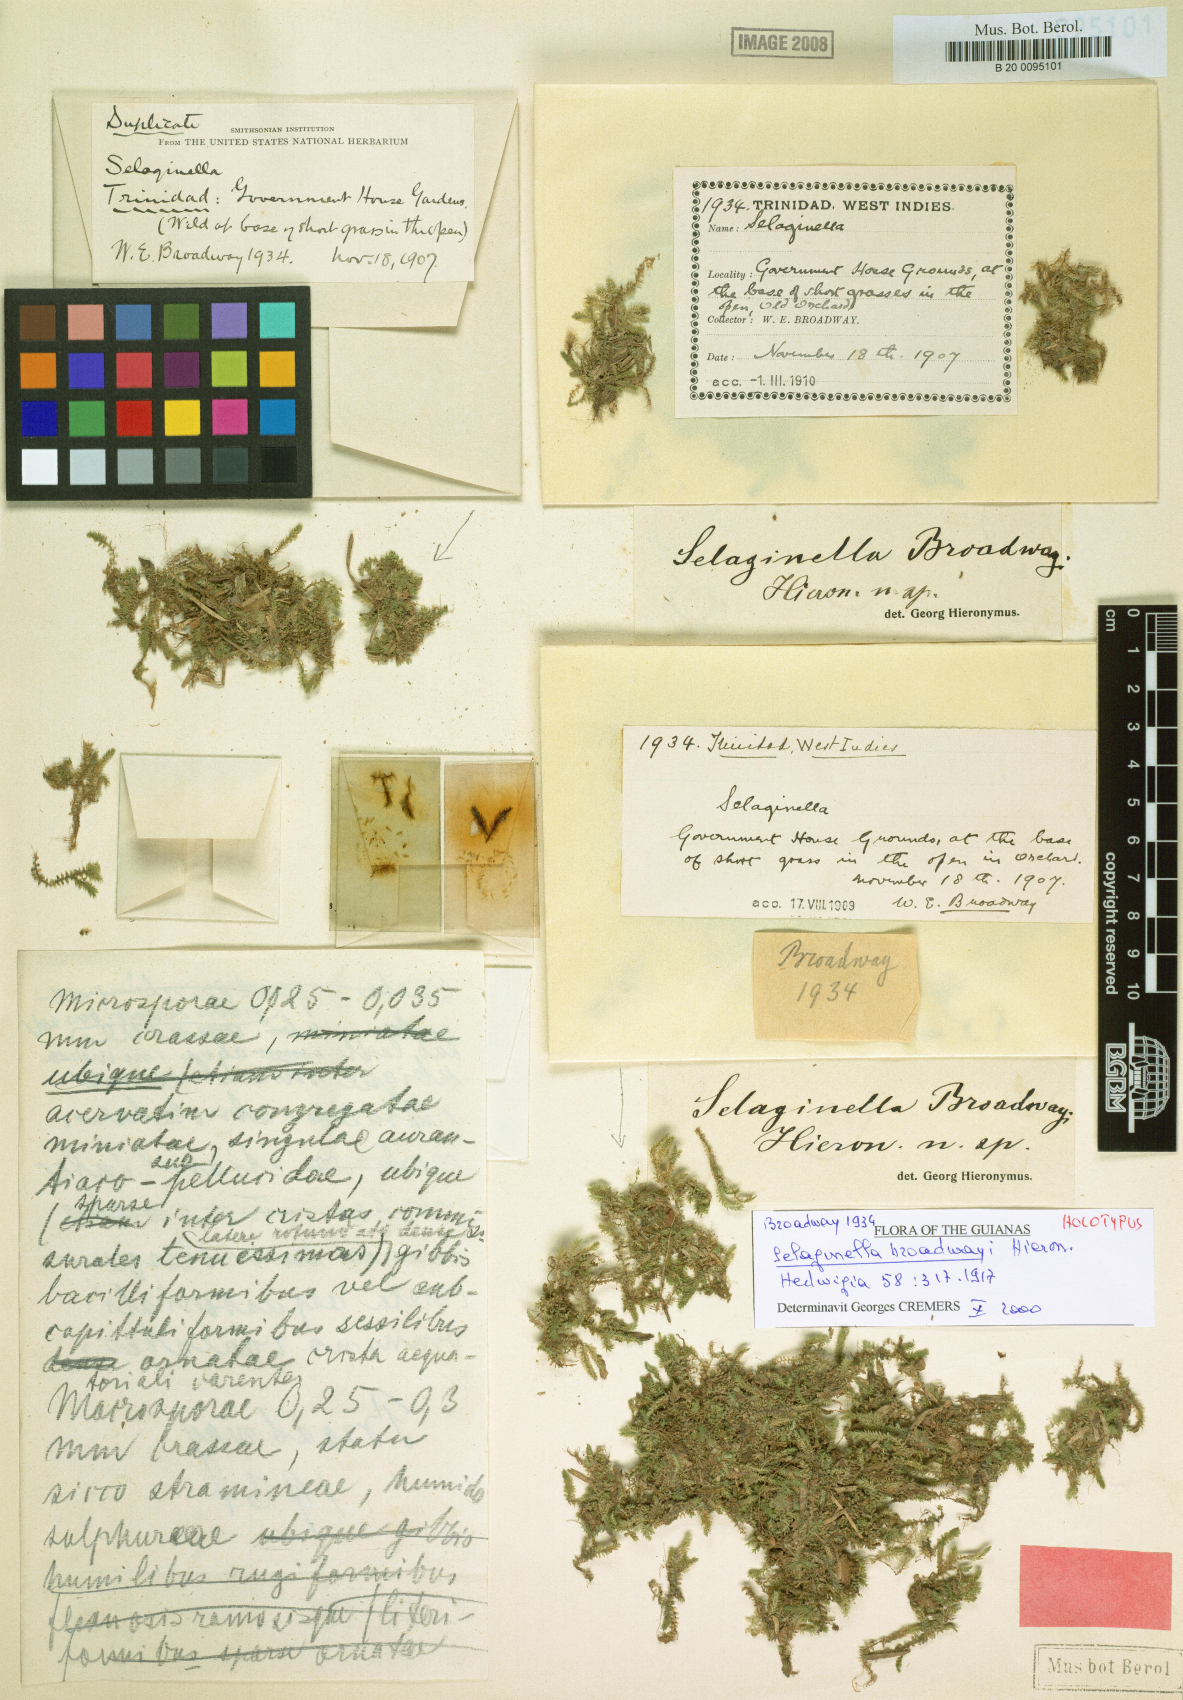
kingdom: Plantae
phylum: Tracheophyta
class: Lycopodiopsida
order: Selaginellales
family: Selaginellaceae
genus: Selaginella
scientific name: Selaginella minima
